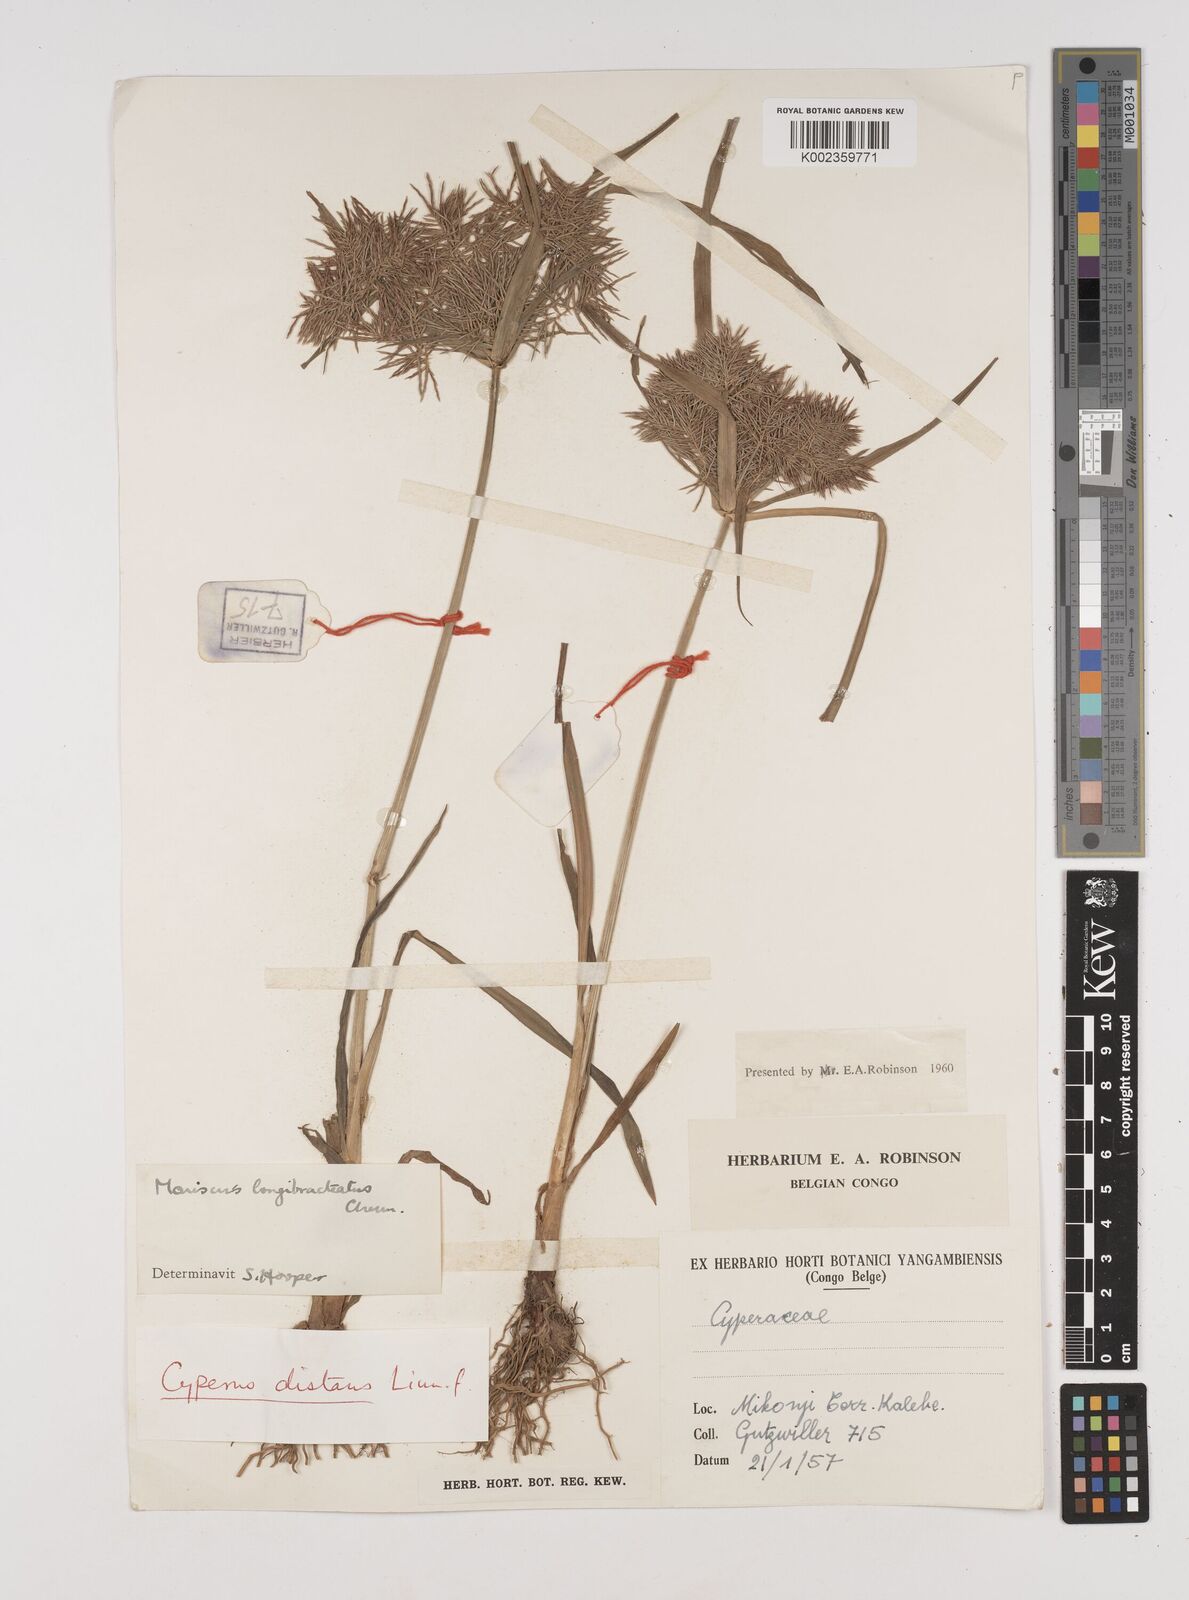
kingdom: Plantae
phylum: Tracheophyta
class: Liliopsida
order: Poales
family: Cyperaceae
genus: Cyperus
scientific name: Cyperus distans
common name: Slender cyperus
